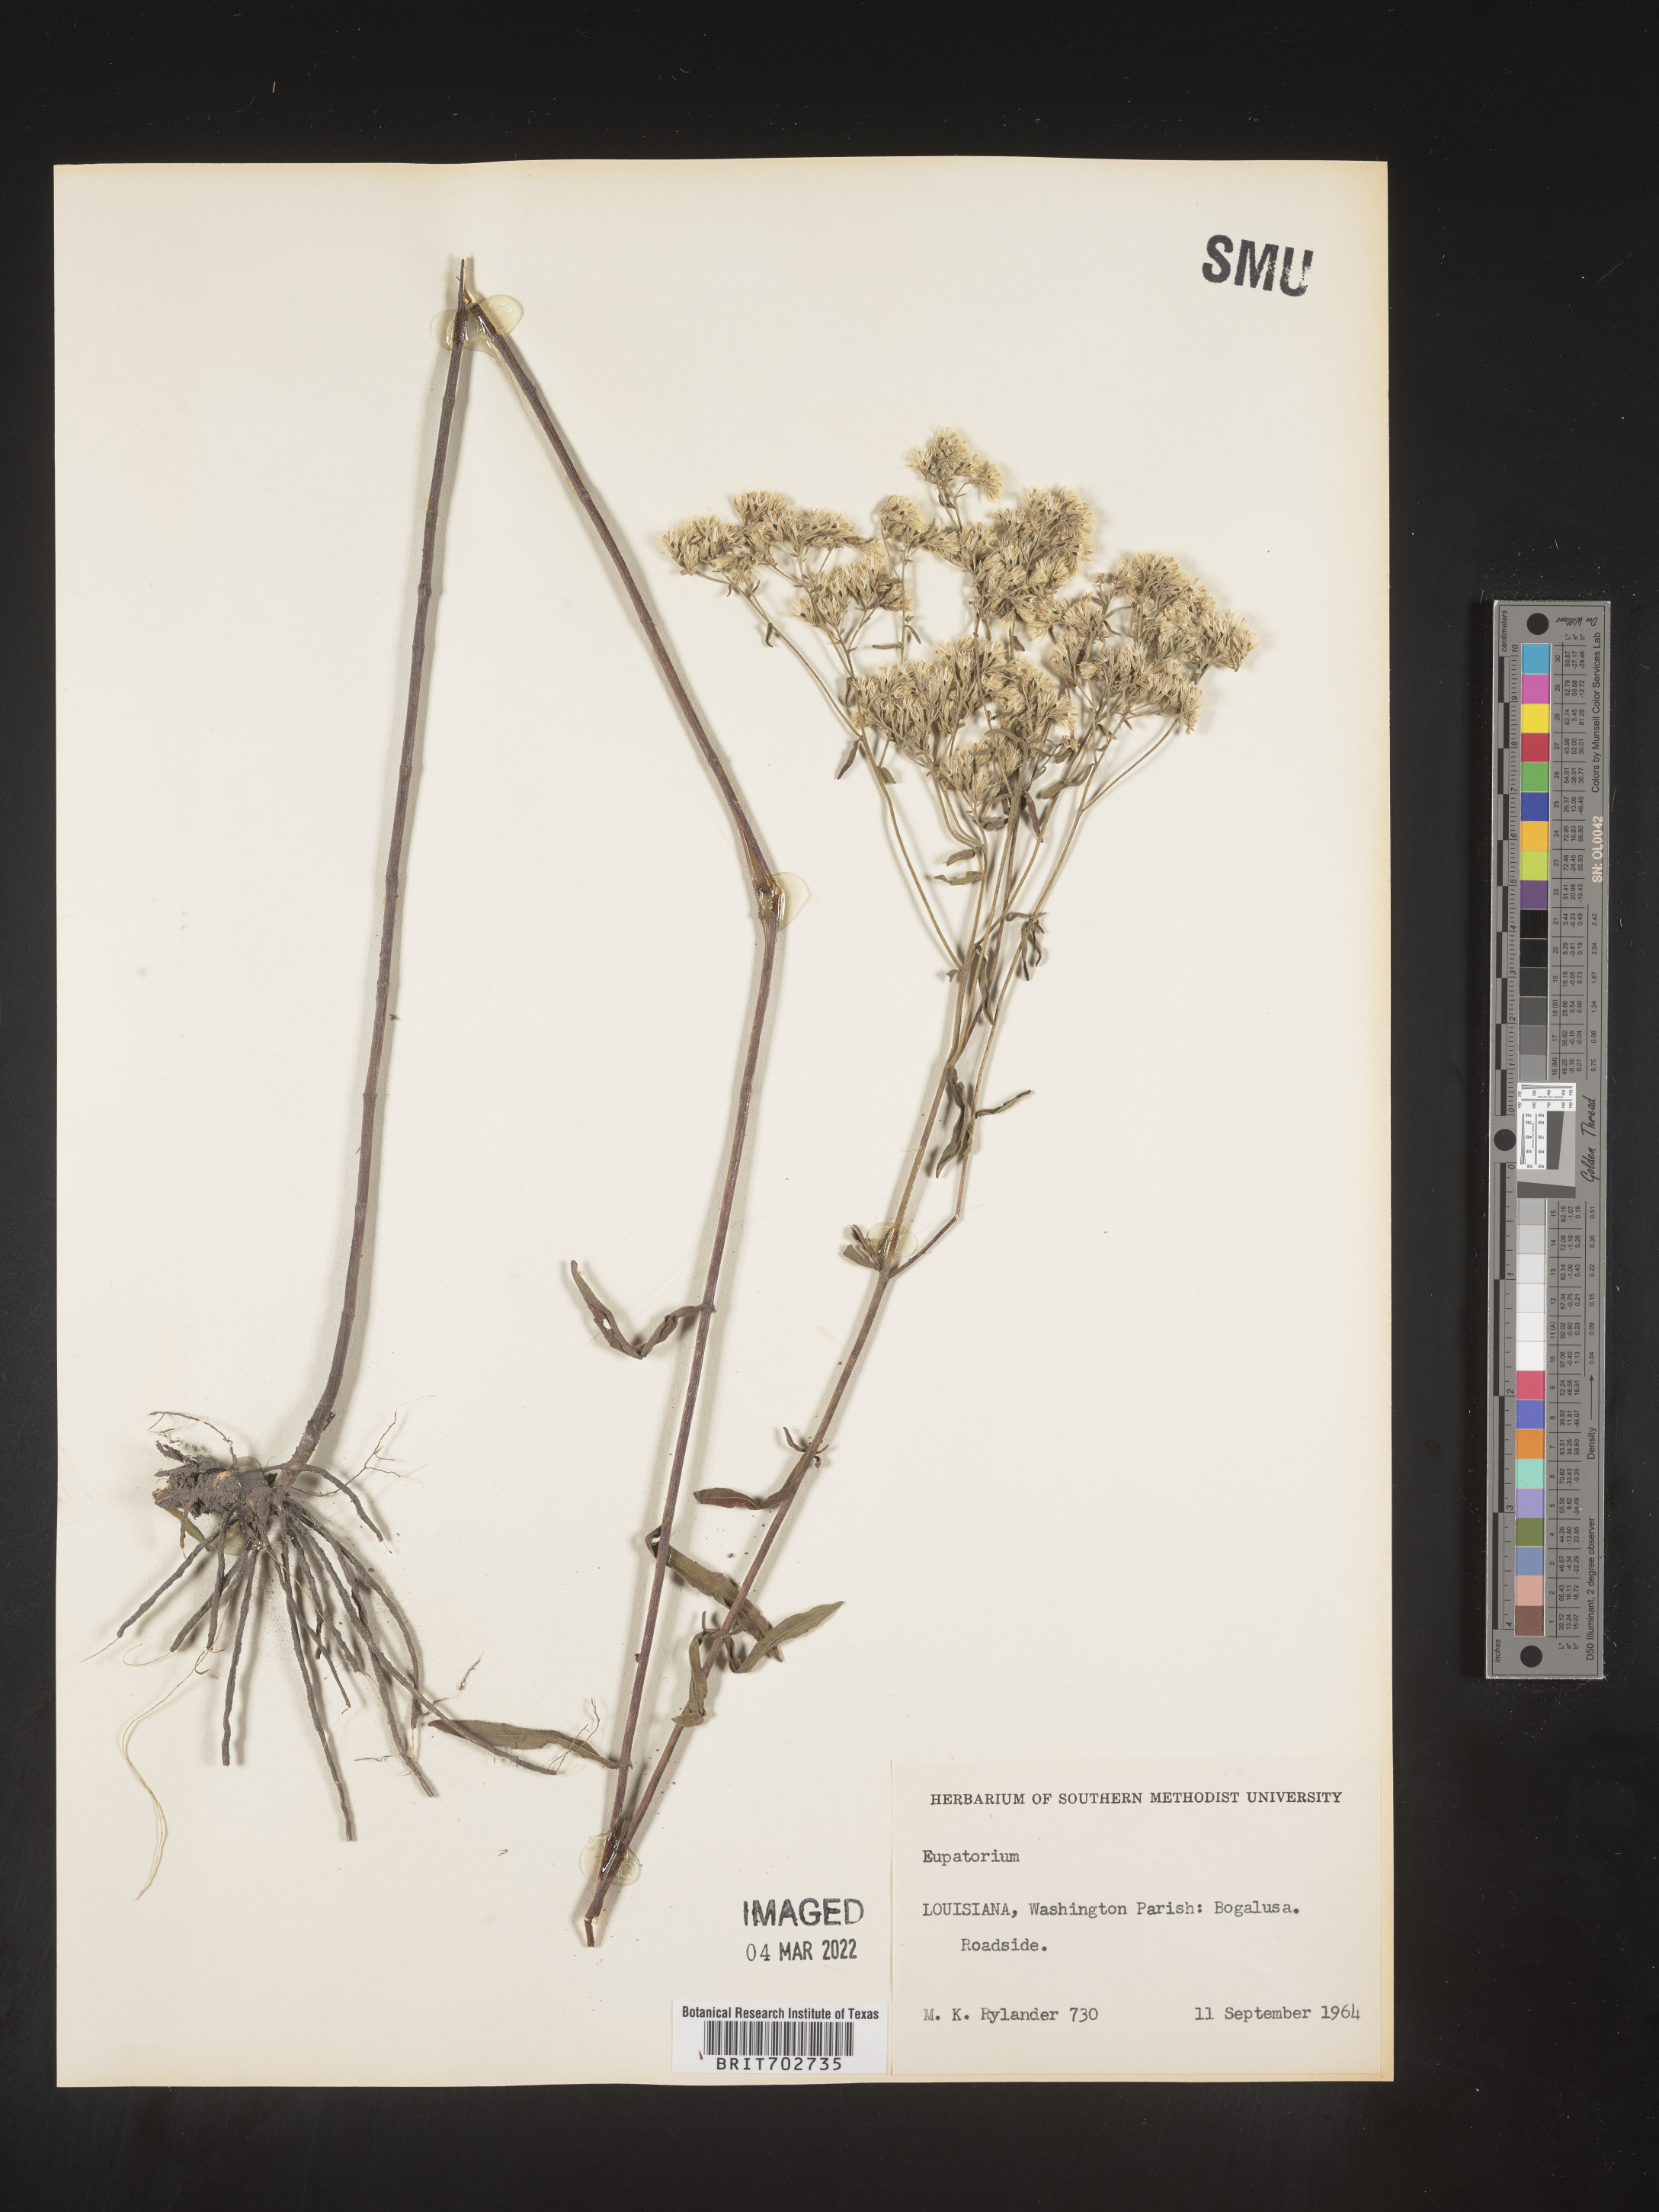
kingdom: Plantae
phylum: Tracheophyta
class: Magnoliopsida
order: Asterales
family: Asteraceae
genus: Eupatorium
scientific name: Eupatorium
